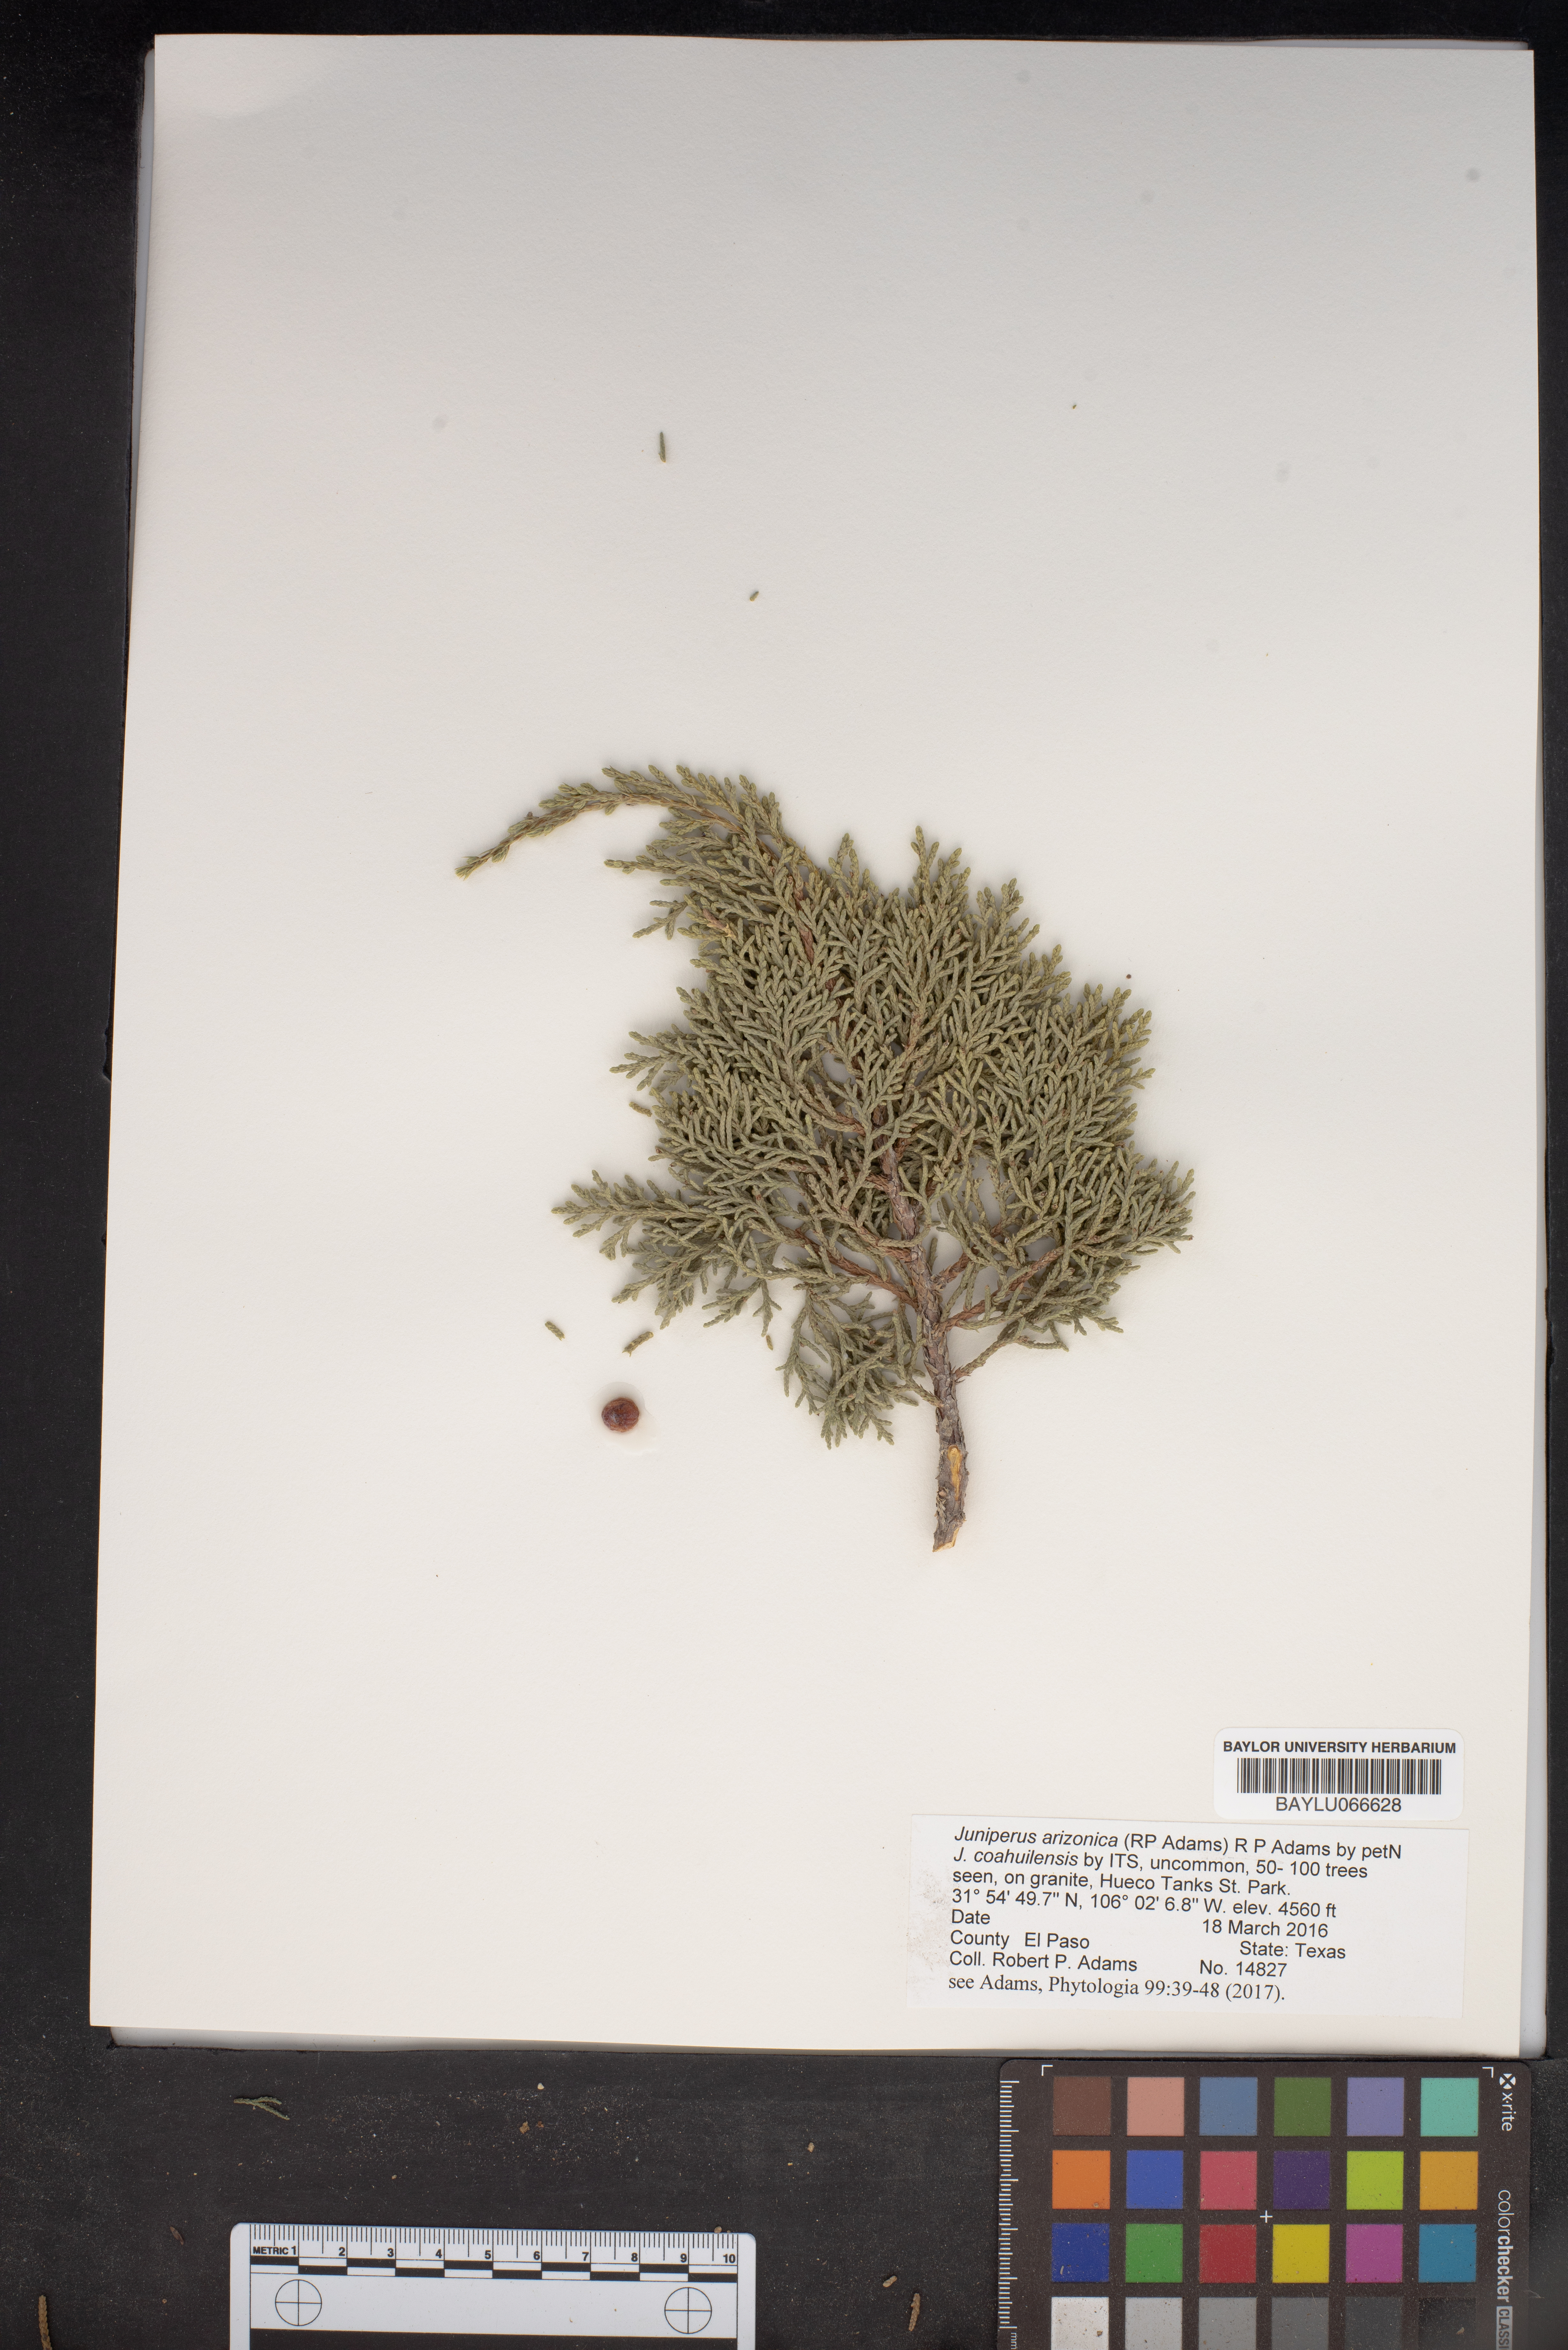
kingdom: Plantae
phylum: Tracheophyta
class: Pinopsida
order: Pinales
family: Cupressaceae
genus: Juniperus
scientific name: Juniperus arizonica
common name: Arizona juniper
